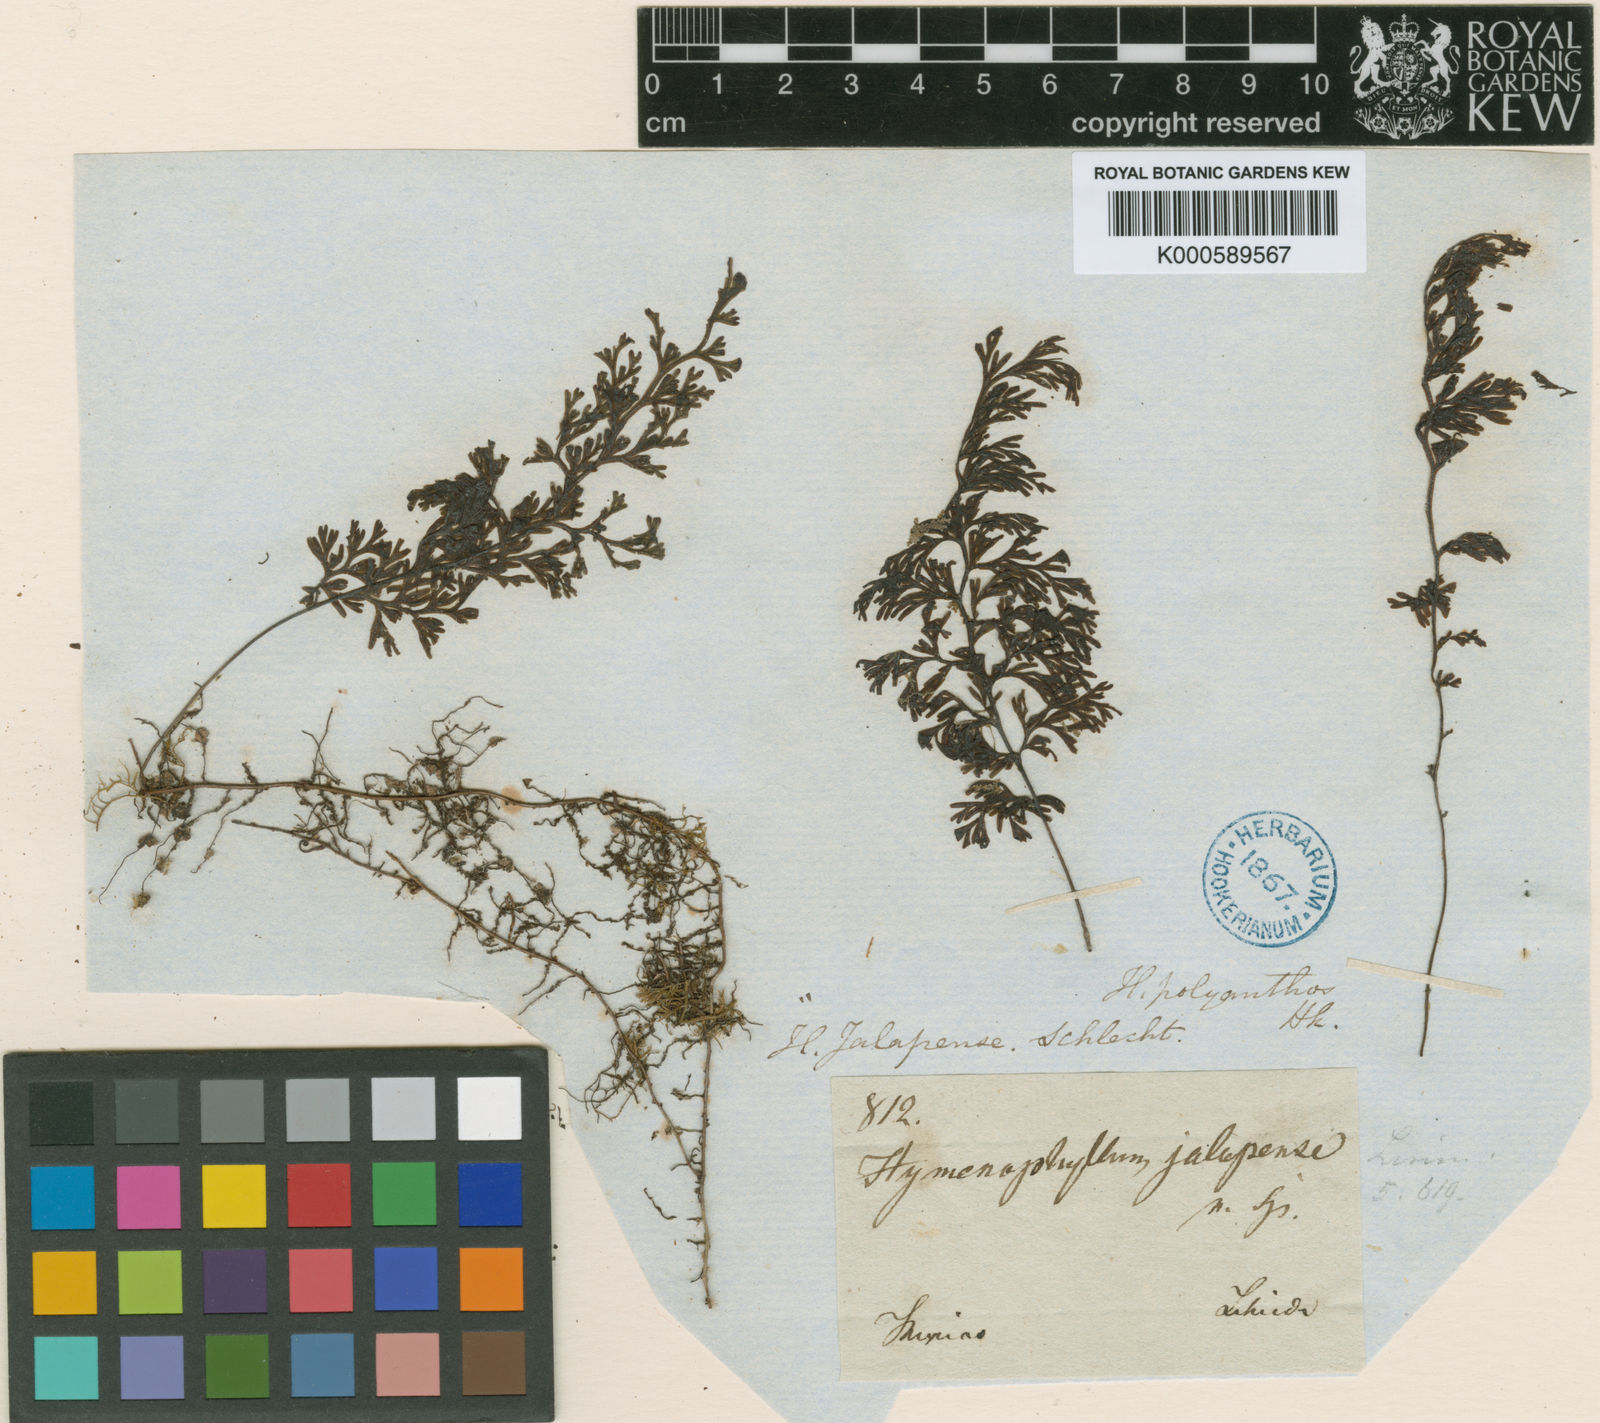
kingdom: Plantae
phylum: Tracheophyta
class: Polypodiopsida
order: Hymenophyllales
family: Hymenophyllaceae
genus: Hymenophyllum
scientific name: Hymenophyllum polyanthos
